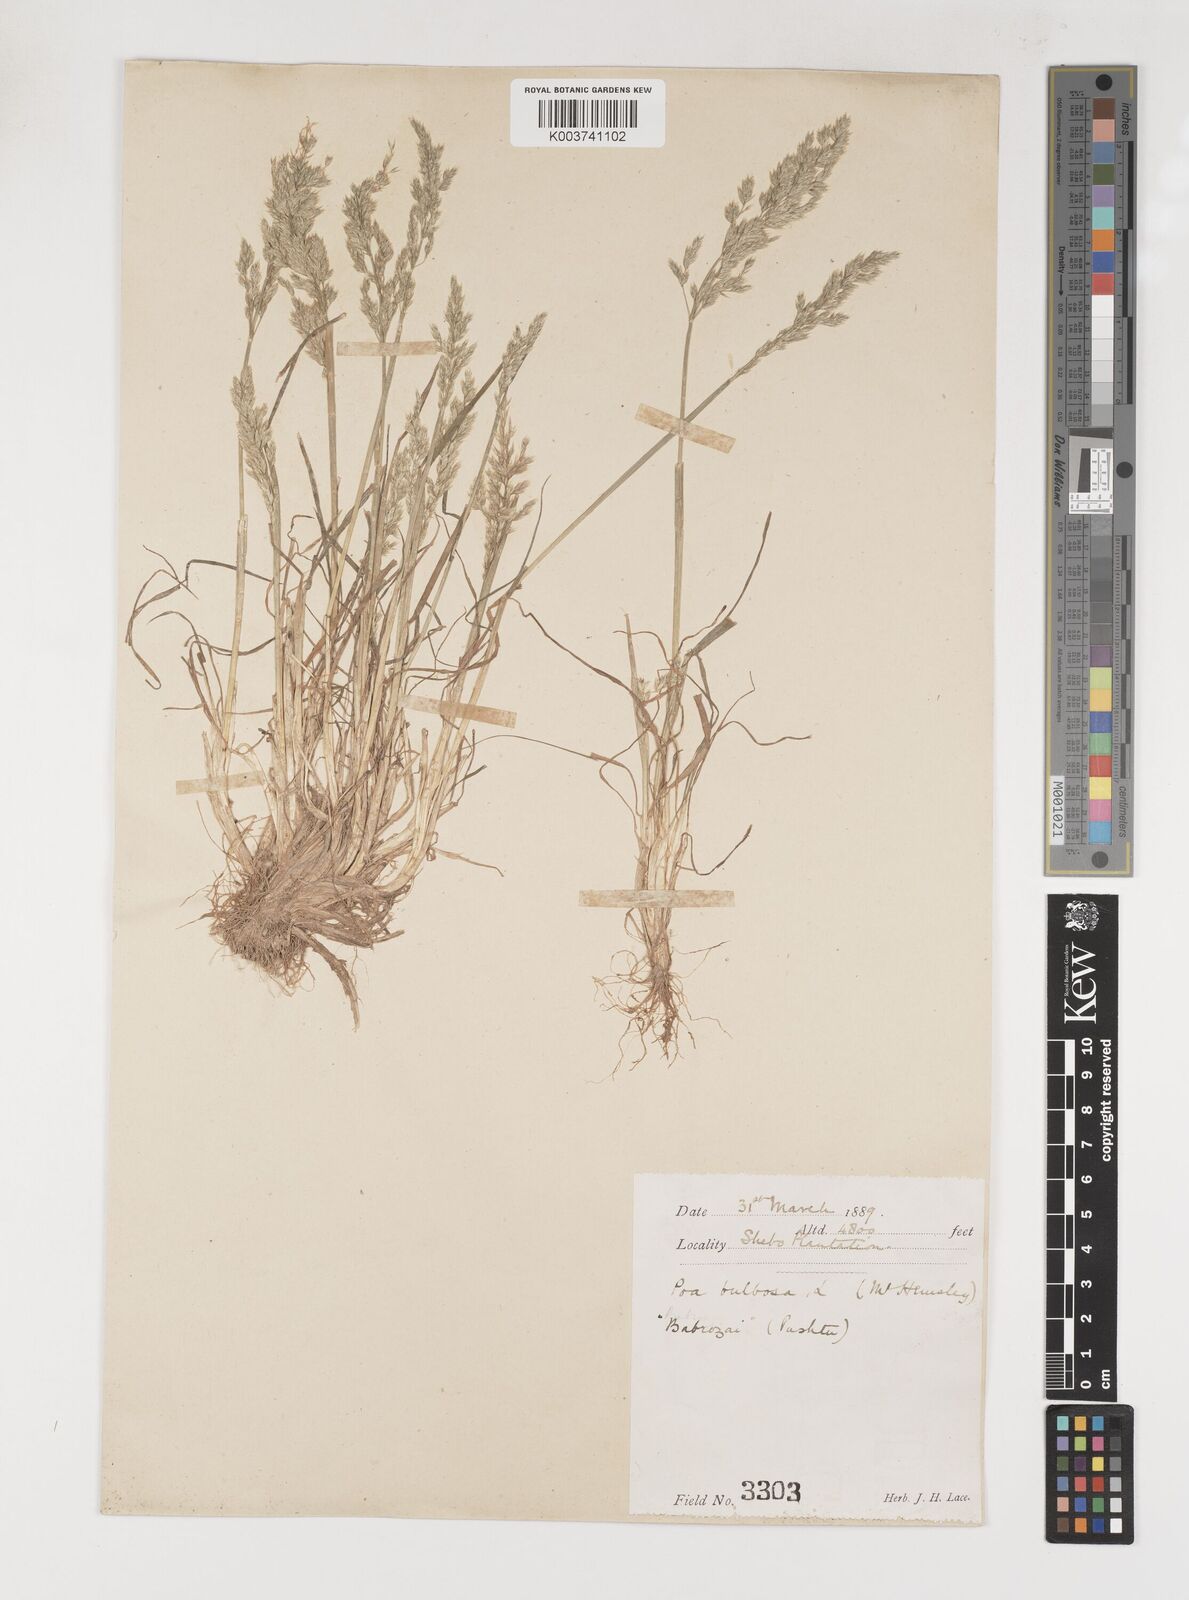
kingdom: Plantae
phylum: Tracheophyta
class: Liliopsida
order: Poales
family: Poaceae
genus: Poa
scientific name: Poa sinaica
